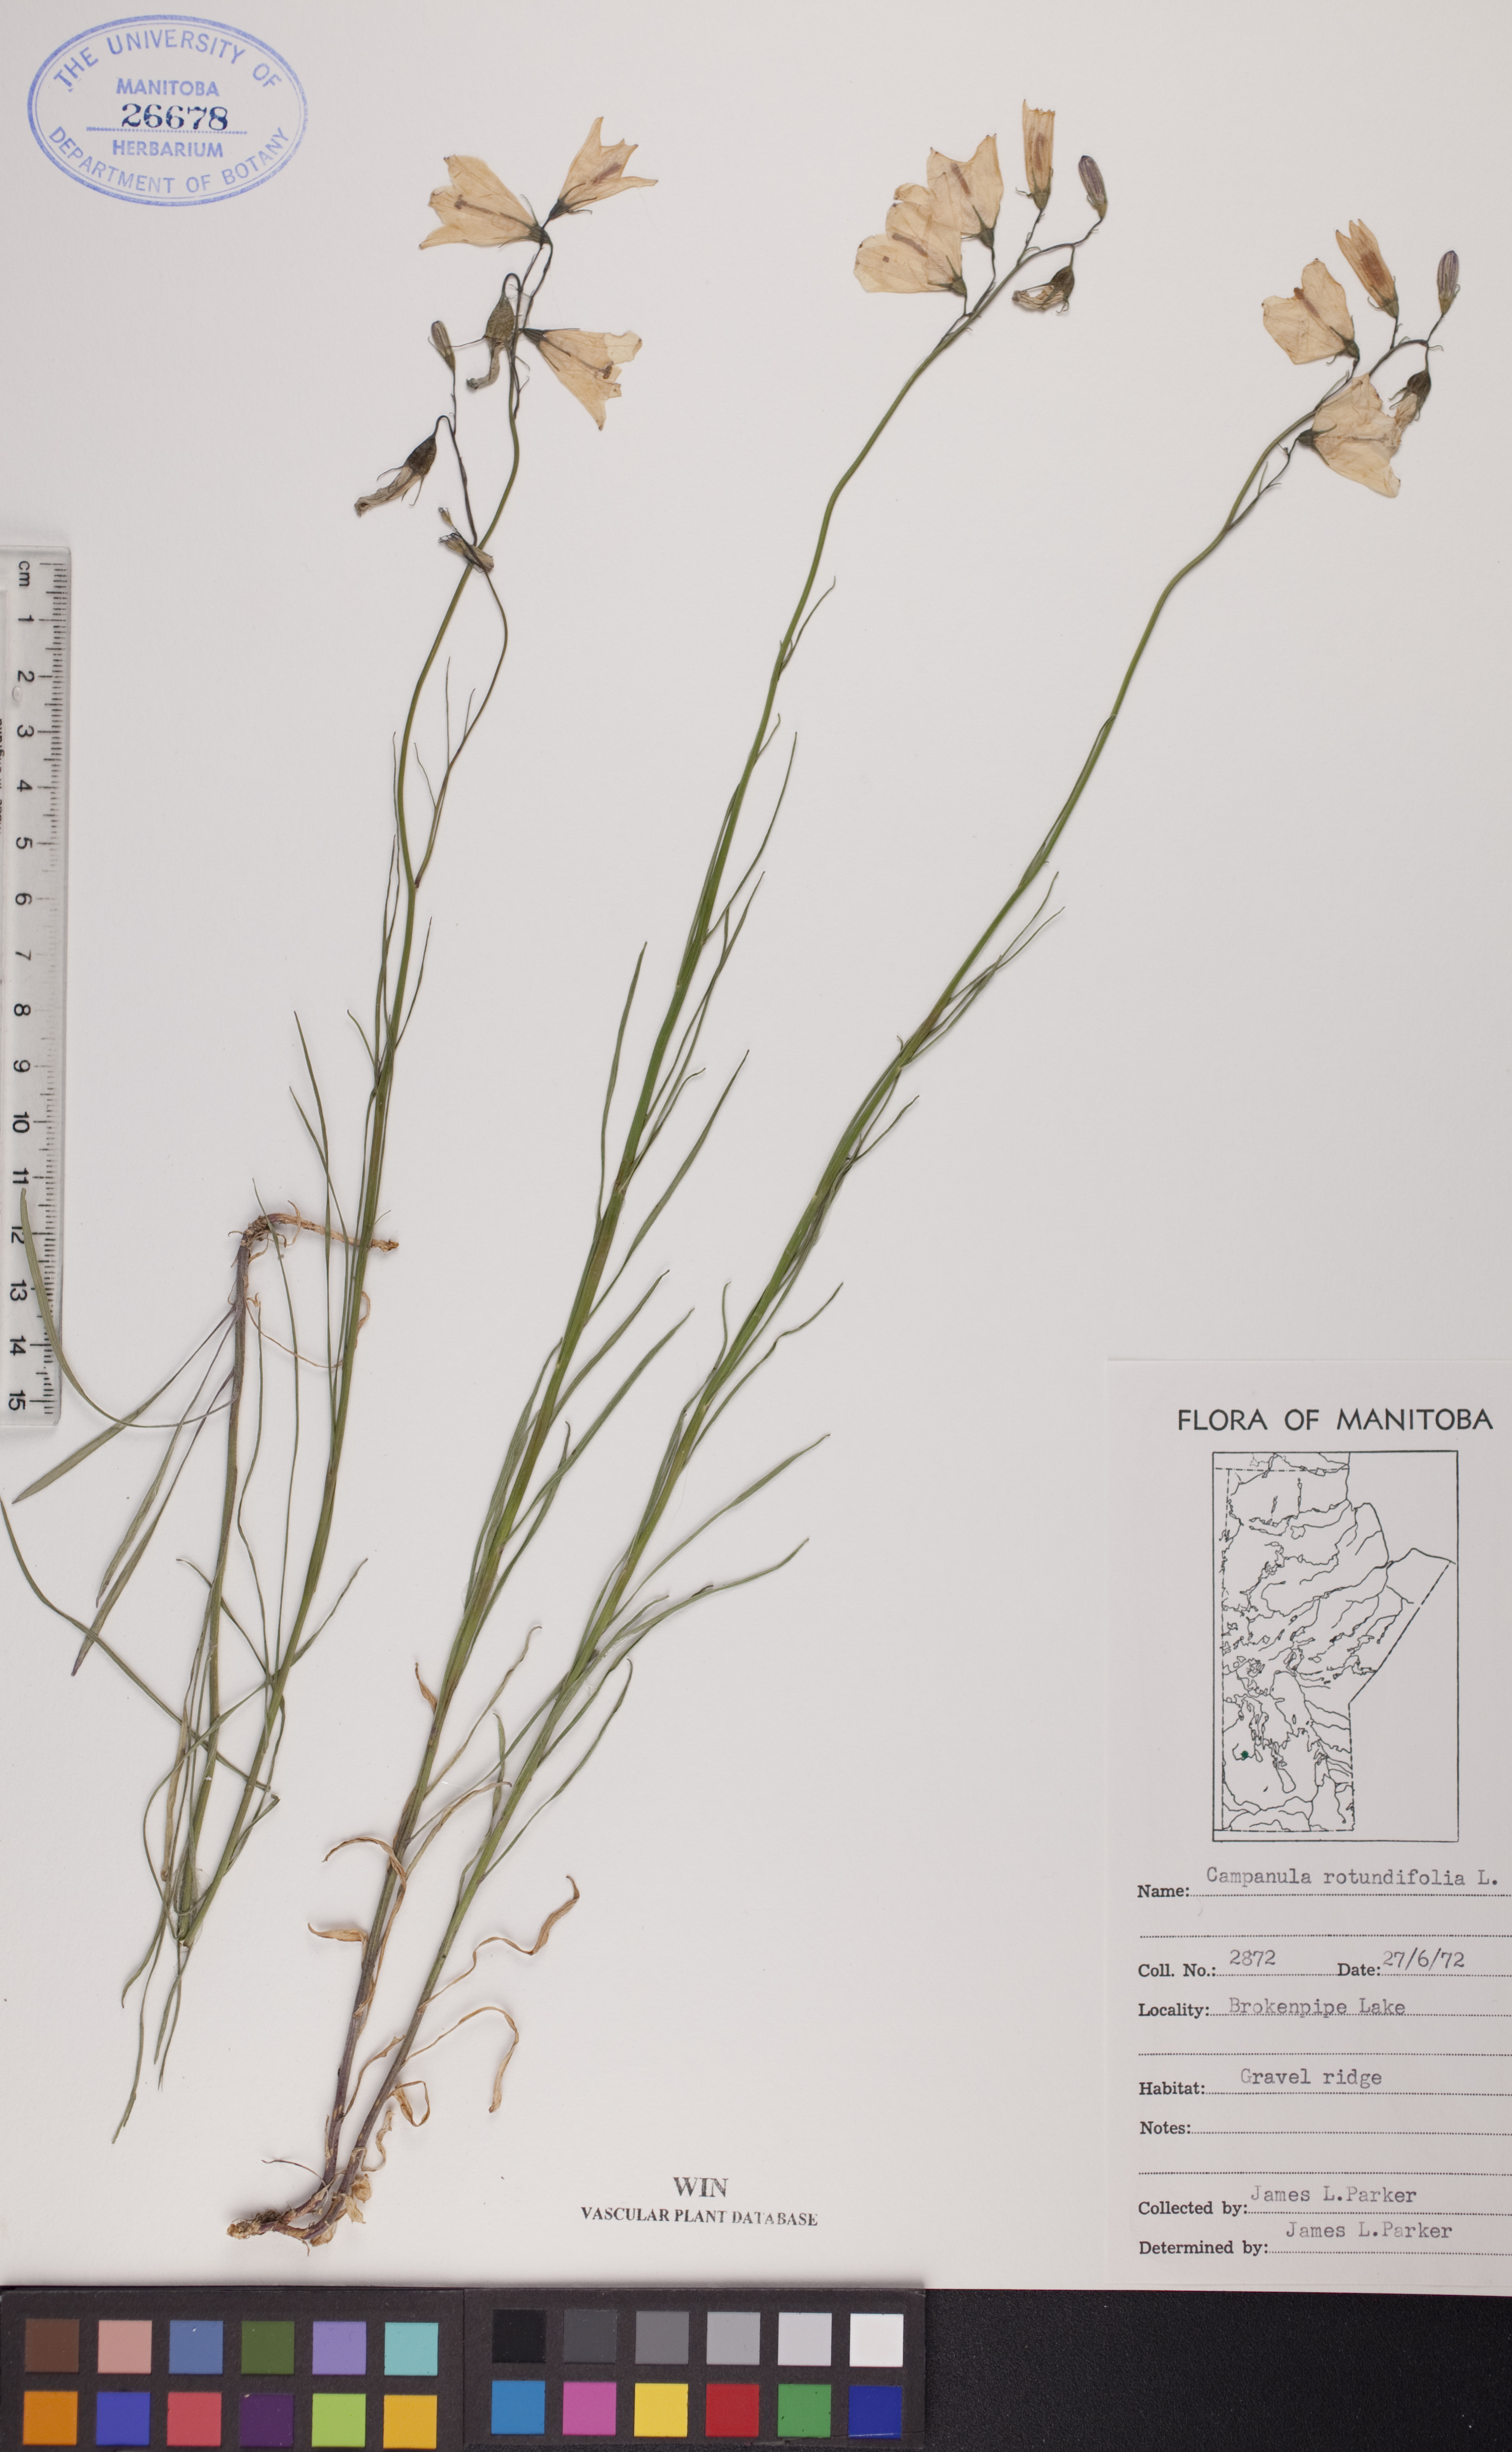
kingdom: Plantae
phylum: Tracheophyta
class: Magnoliopsida
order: Asterales
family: Campanulaceae
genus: Campanula
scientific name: Campanula rotundifolia
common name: Harebell
